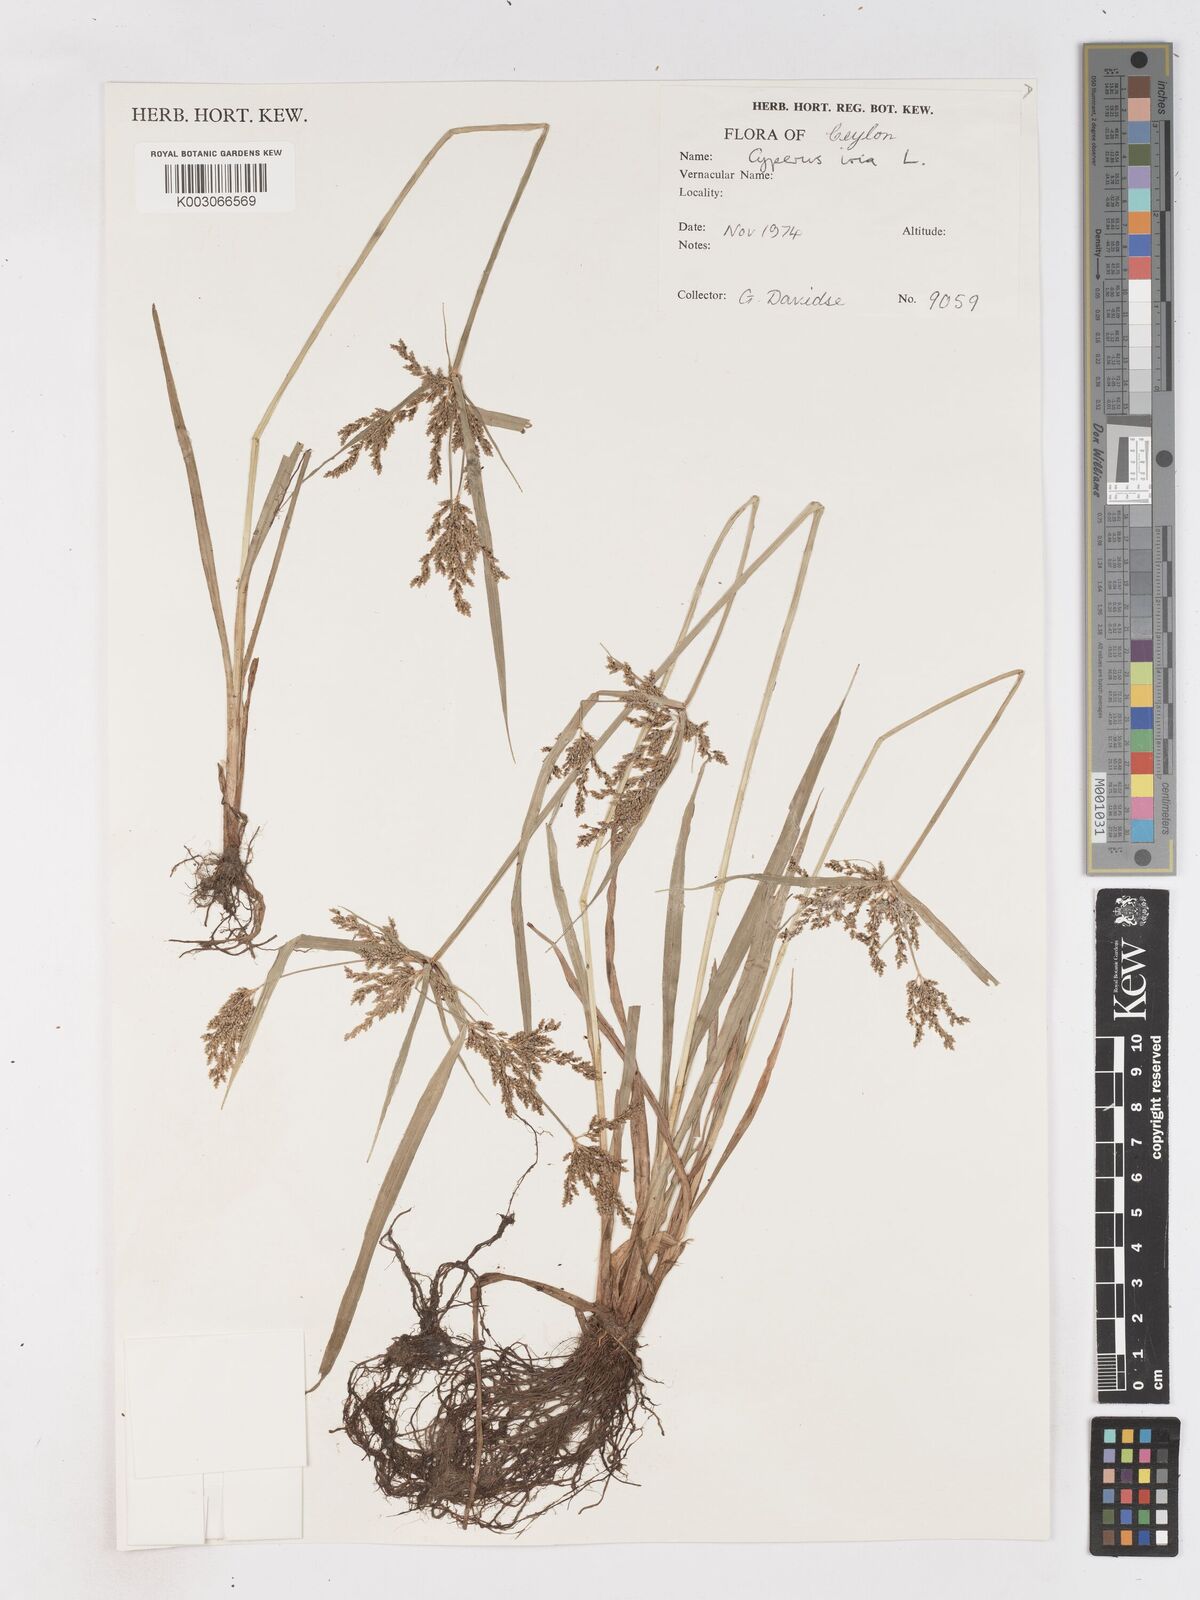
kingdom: Plantae
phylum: Tracheophyta
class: Liliopsida
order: Poales
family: Cyperaceae
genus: Cyperus
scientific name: Cyperus iria
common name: Ricefield flatsedge
